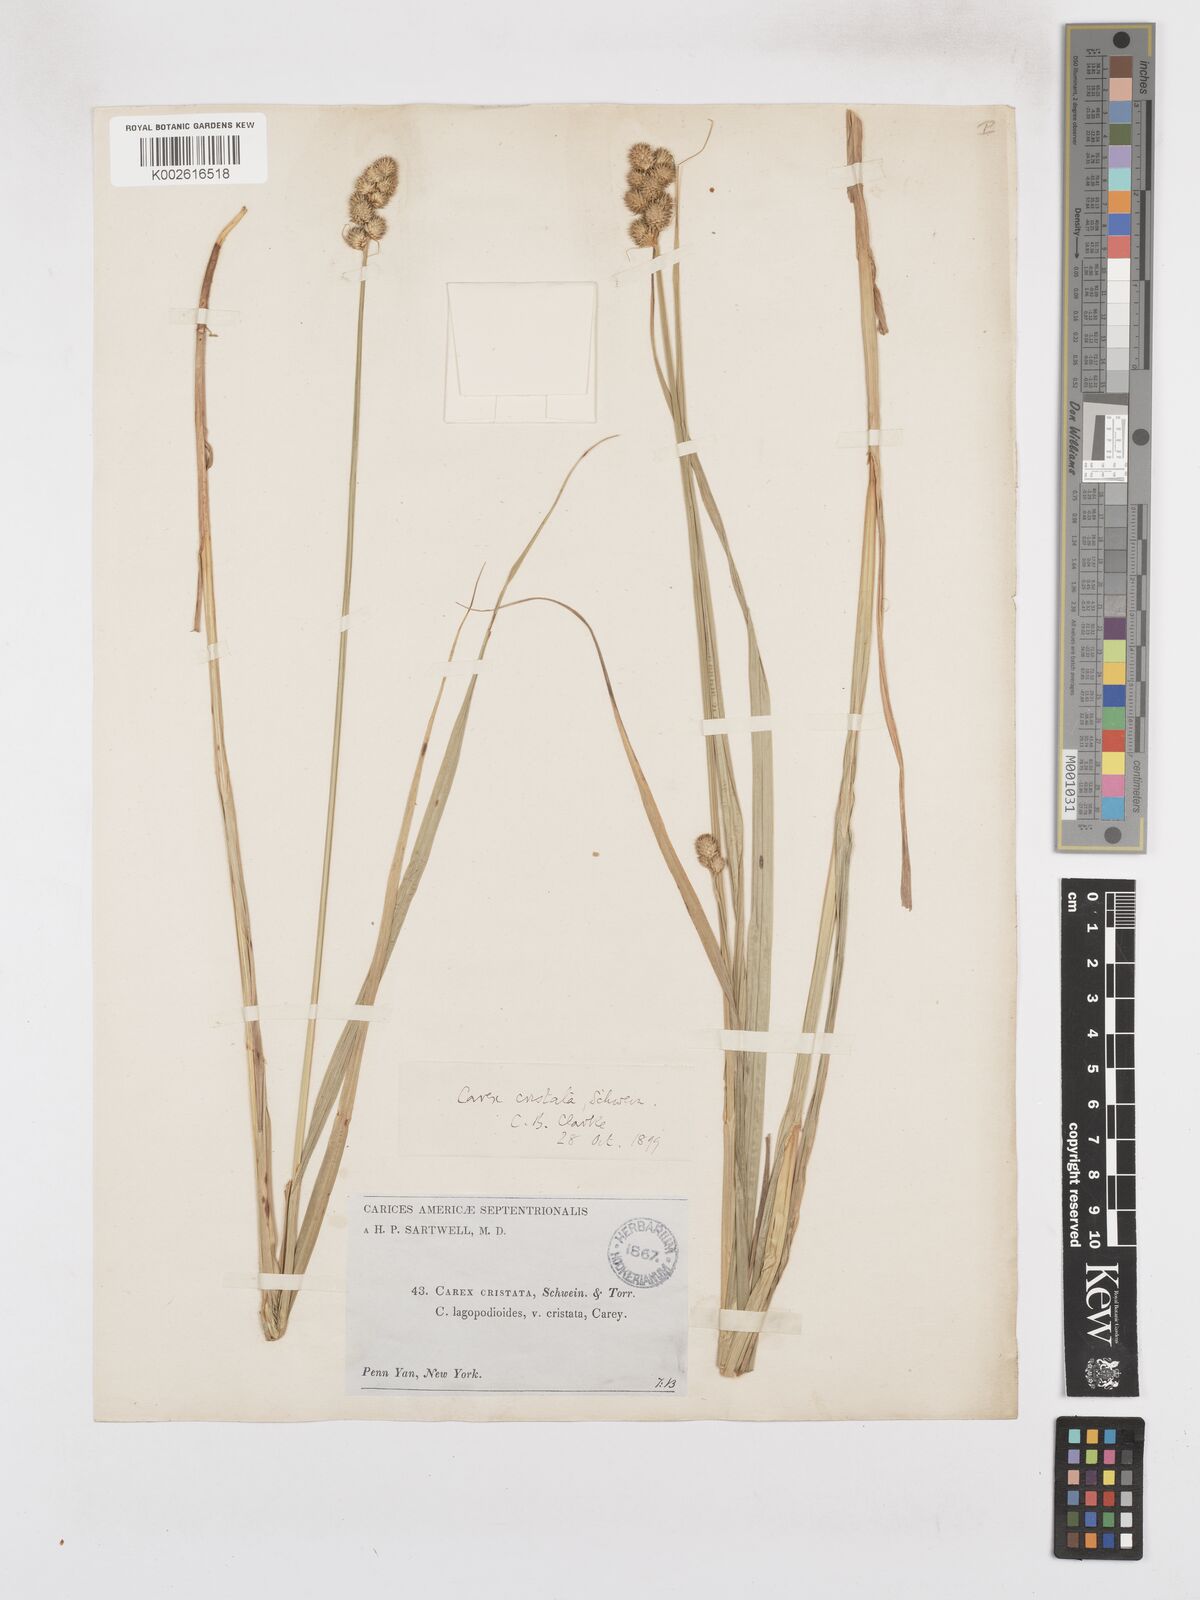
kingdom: Plantae
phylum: Tracheophyta
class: Liliopsida
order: Poales
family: Cyperaceae
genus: Carex
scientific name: Carex cristatella
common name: Crested oval sedge
